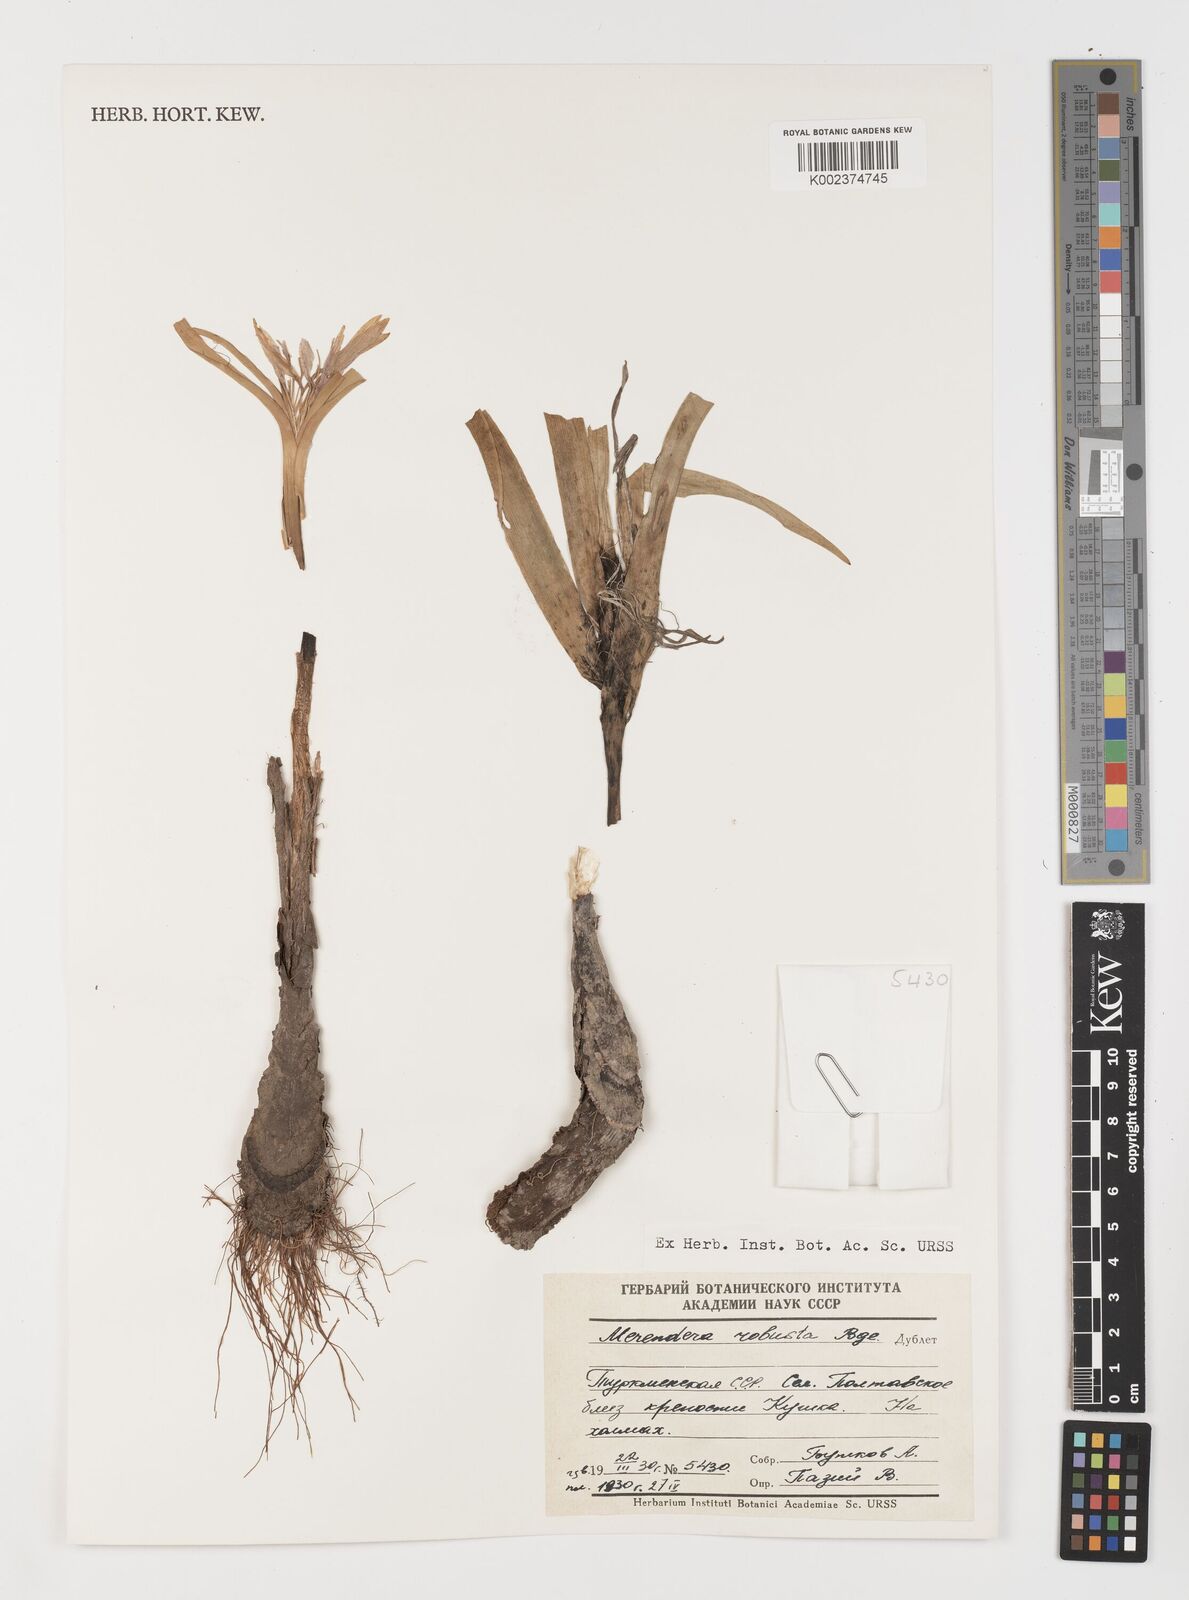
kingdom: Plantae
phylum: Tracheophyta
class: Liliopsida
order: Liliales
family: Colchicaceae
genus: Colchicum
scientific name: Colchicum robustum
